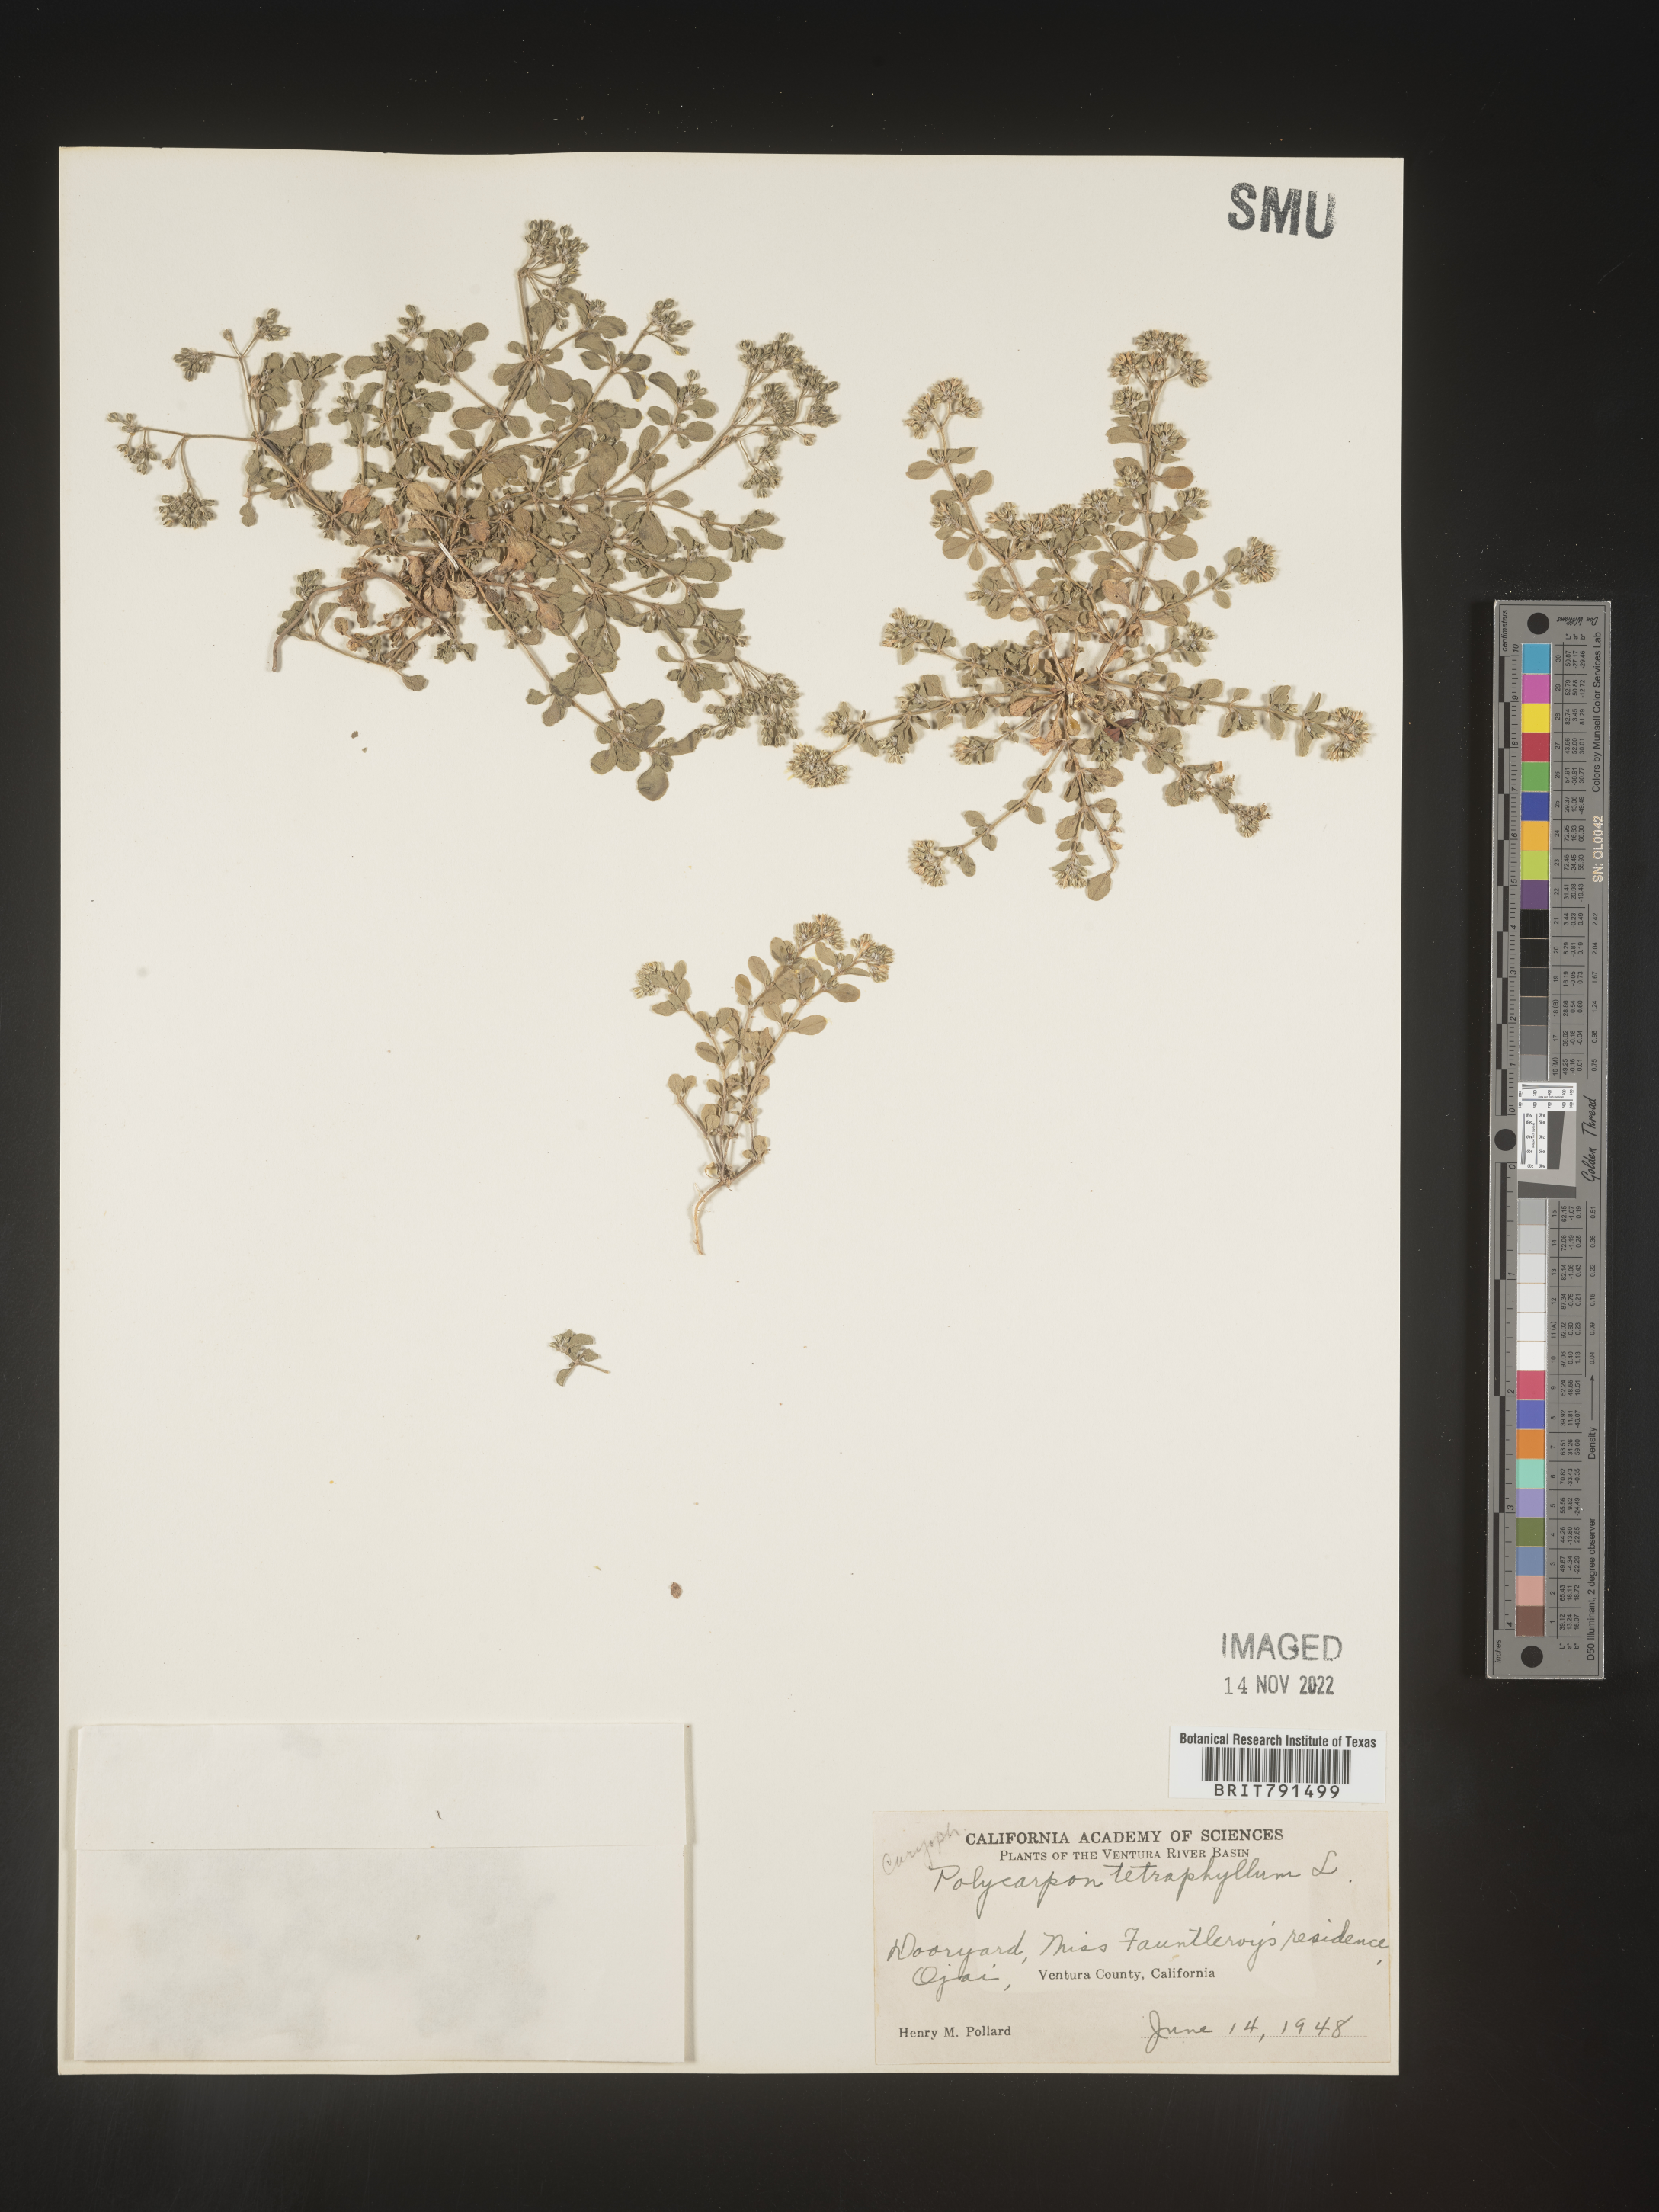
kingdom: Plantae
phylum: Tracheophyta
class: Magnoliopsida
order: Caryophyllales
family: Caryophyllaceae
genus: Polycarpon
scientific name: Polycarpon
